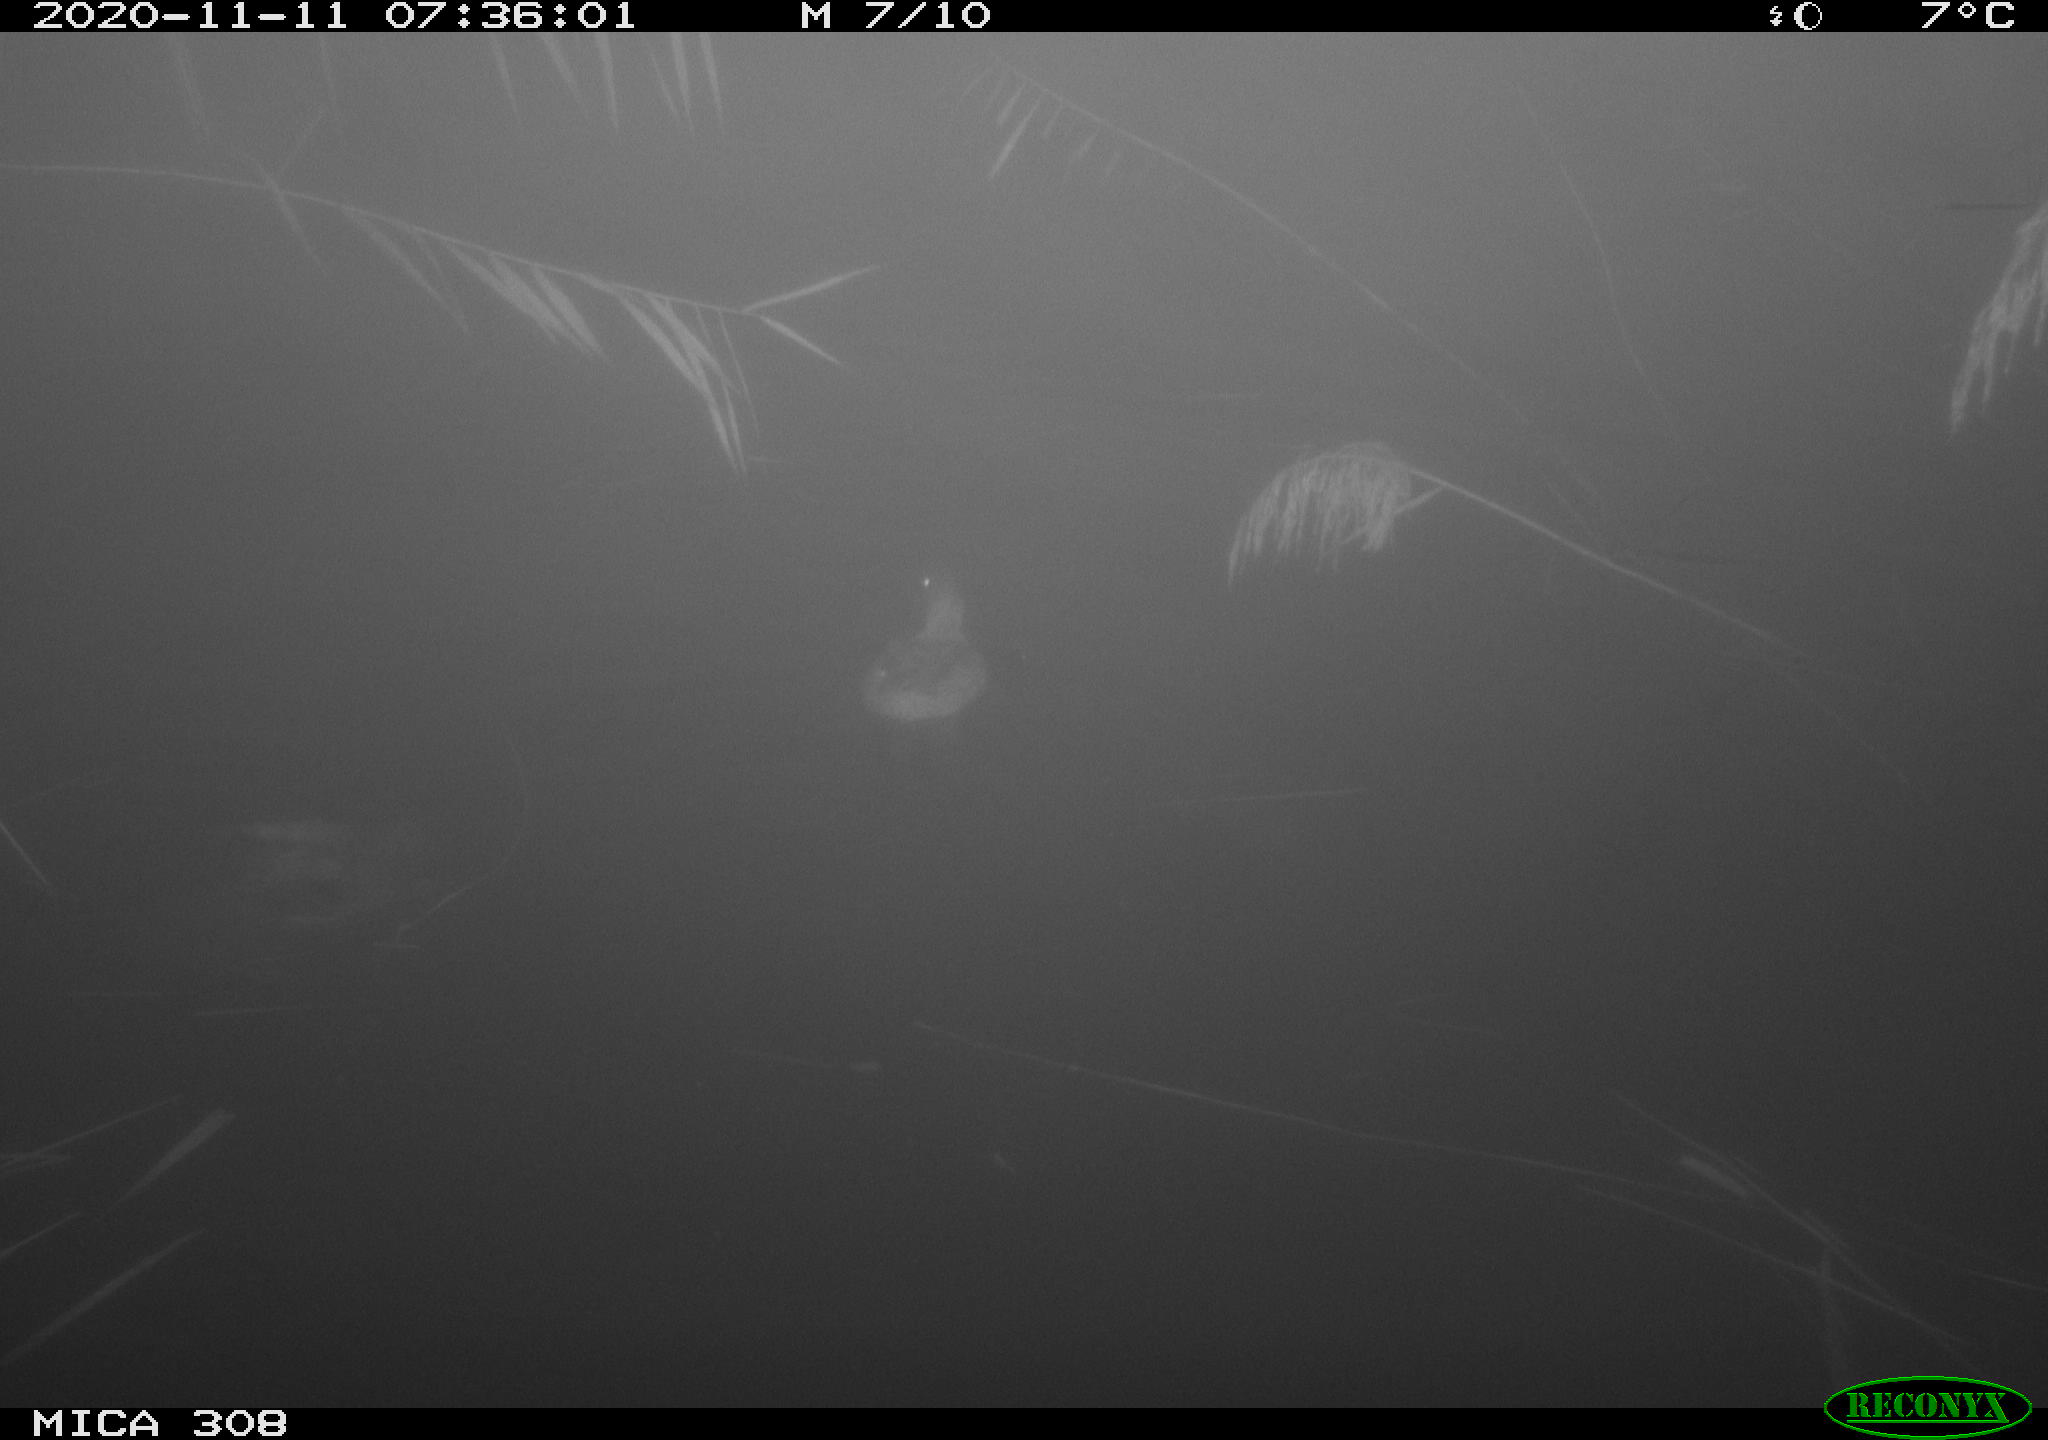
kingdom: Animalia
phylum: Chordata
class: Aves
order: Anseriformes
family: Anatidae
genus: Anas
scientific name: Anas platyrhynchos
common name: Mallard
